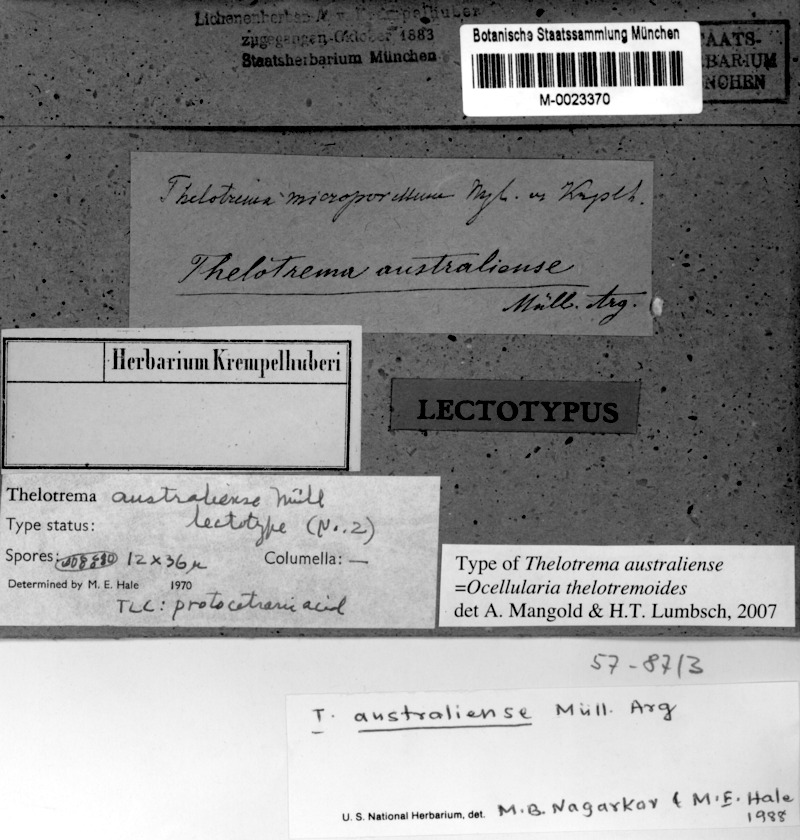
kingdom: Fungi
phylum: Ascomycota
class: Lecanoromycetes
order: Ostropales
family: Graphidaceae
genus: Ocellularia
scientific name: Ocellularia
